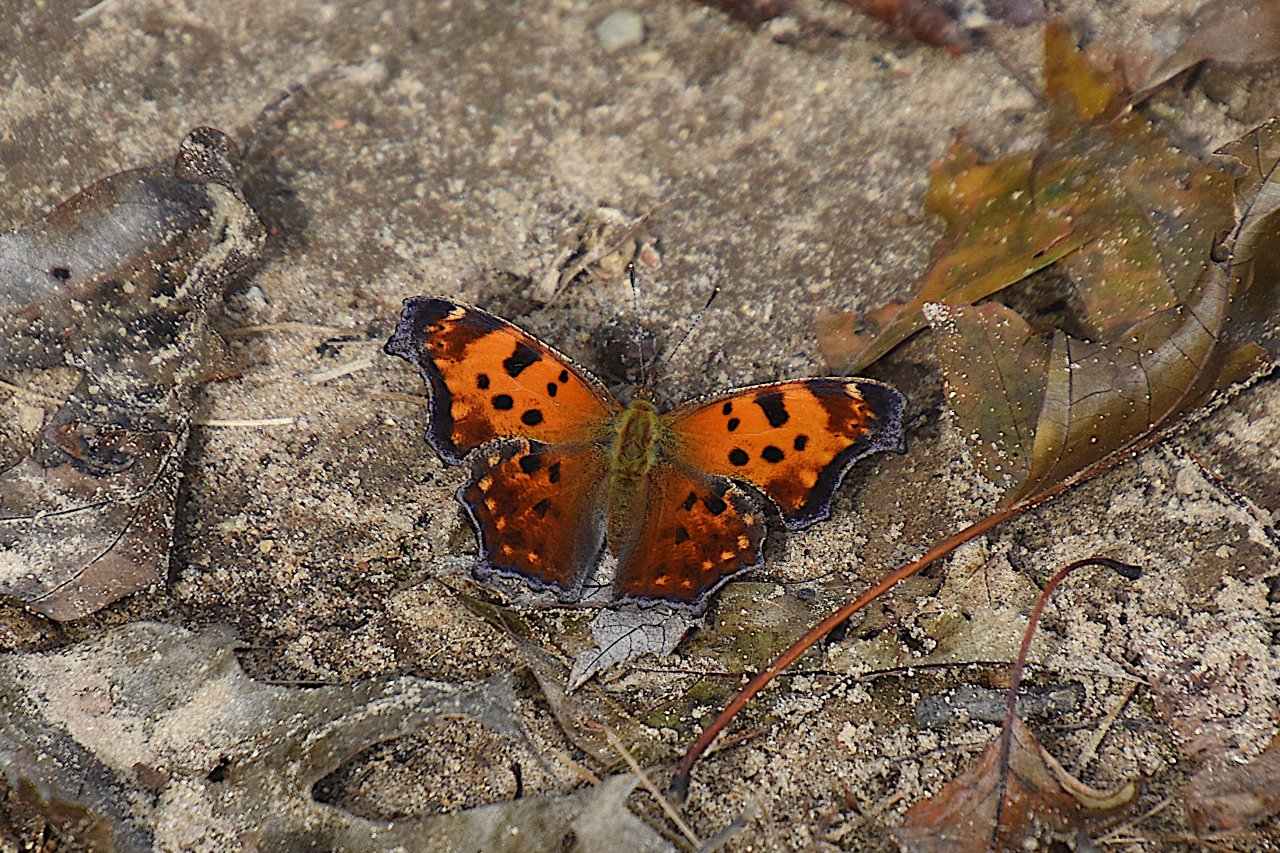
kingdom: Animalia
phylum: Arthropoda
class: Insecta
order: Lepidoptera
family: Nymphalidae
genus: Polygonia
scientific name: Polygonia comma
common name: Eastern Comma
